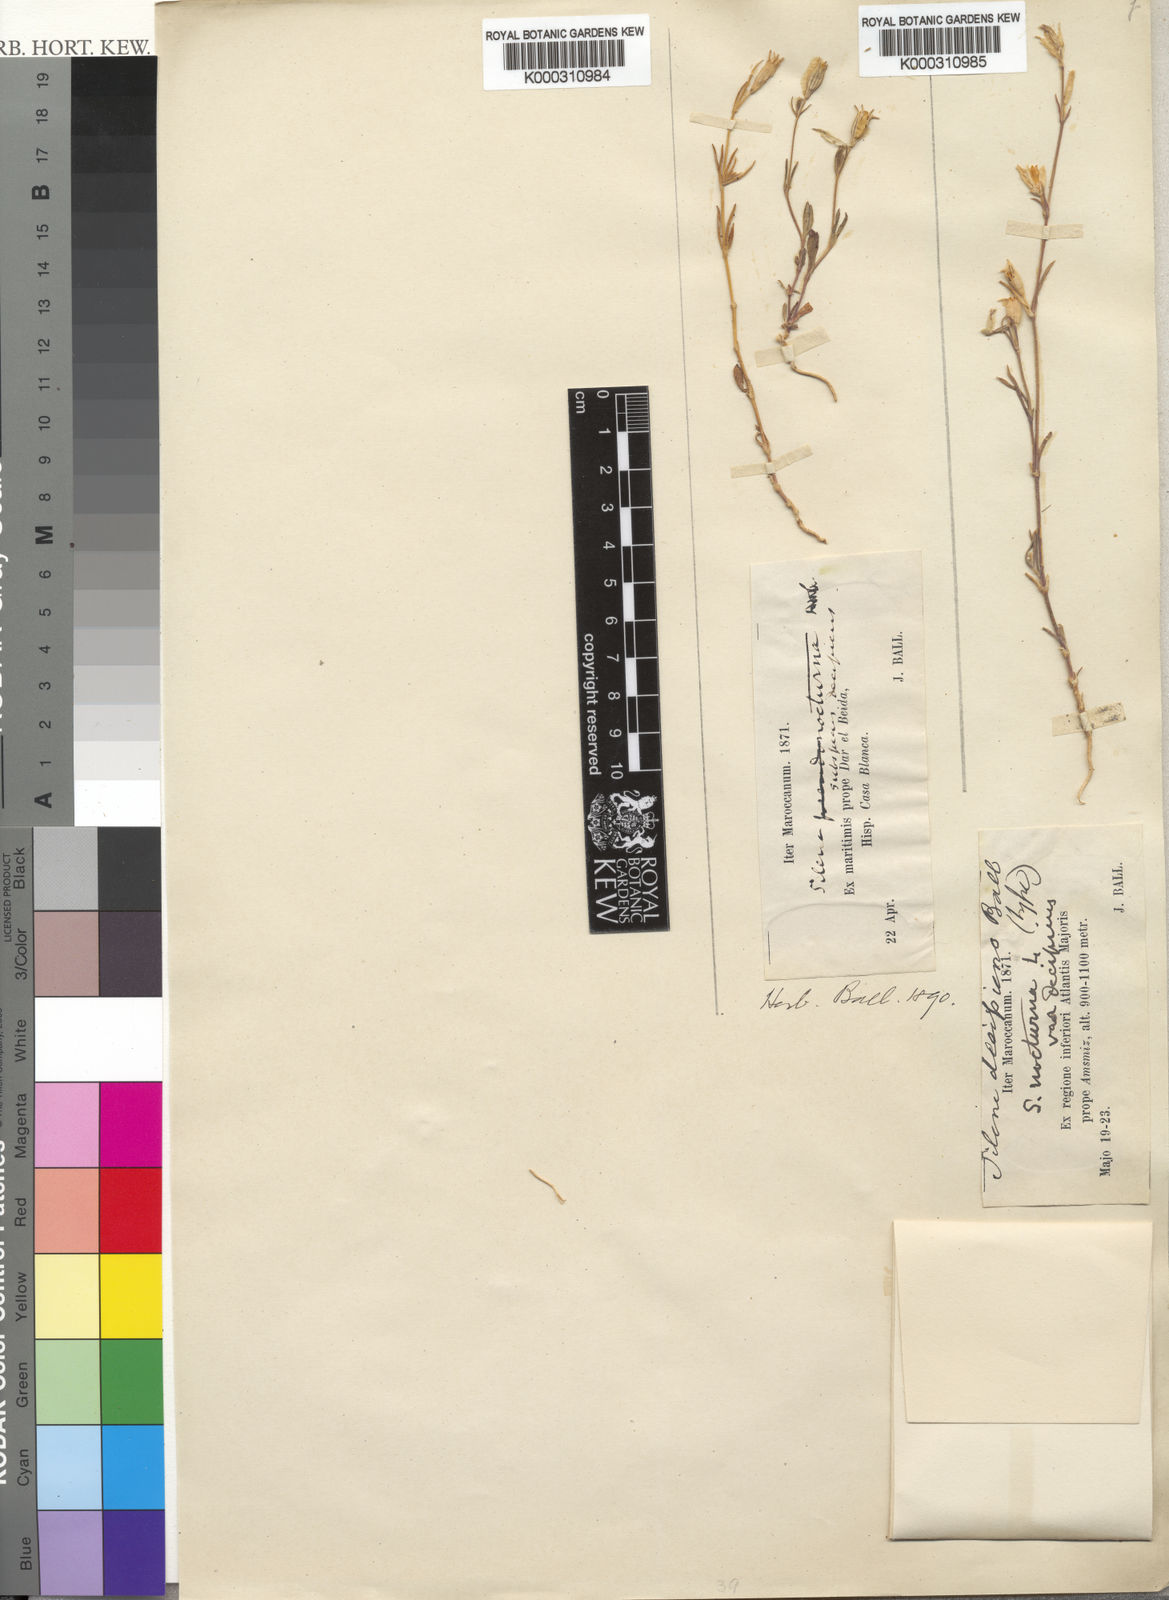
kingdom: Plantae
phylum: Tracheophyta
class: Magnoliopsida
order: Caryophyllales
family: Caryophyllaceae
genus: Silene
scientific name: Silene nocturna
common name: Mediterranean catchfly
